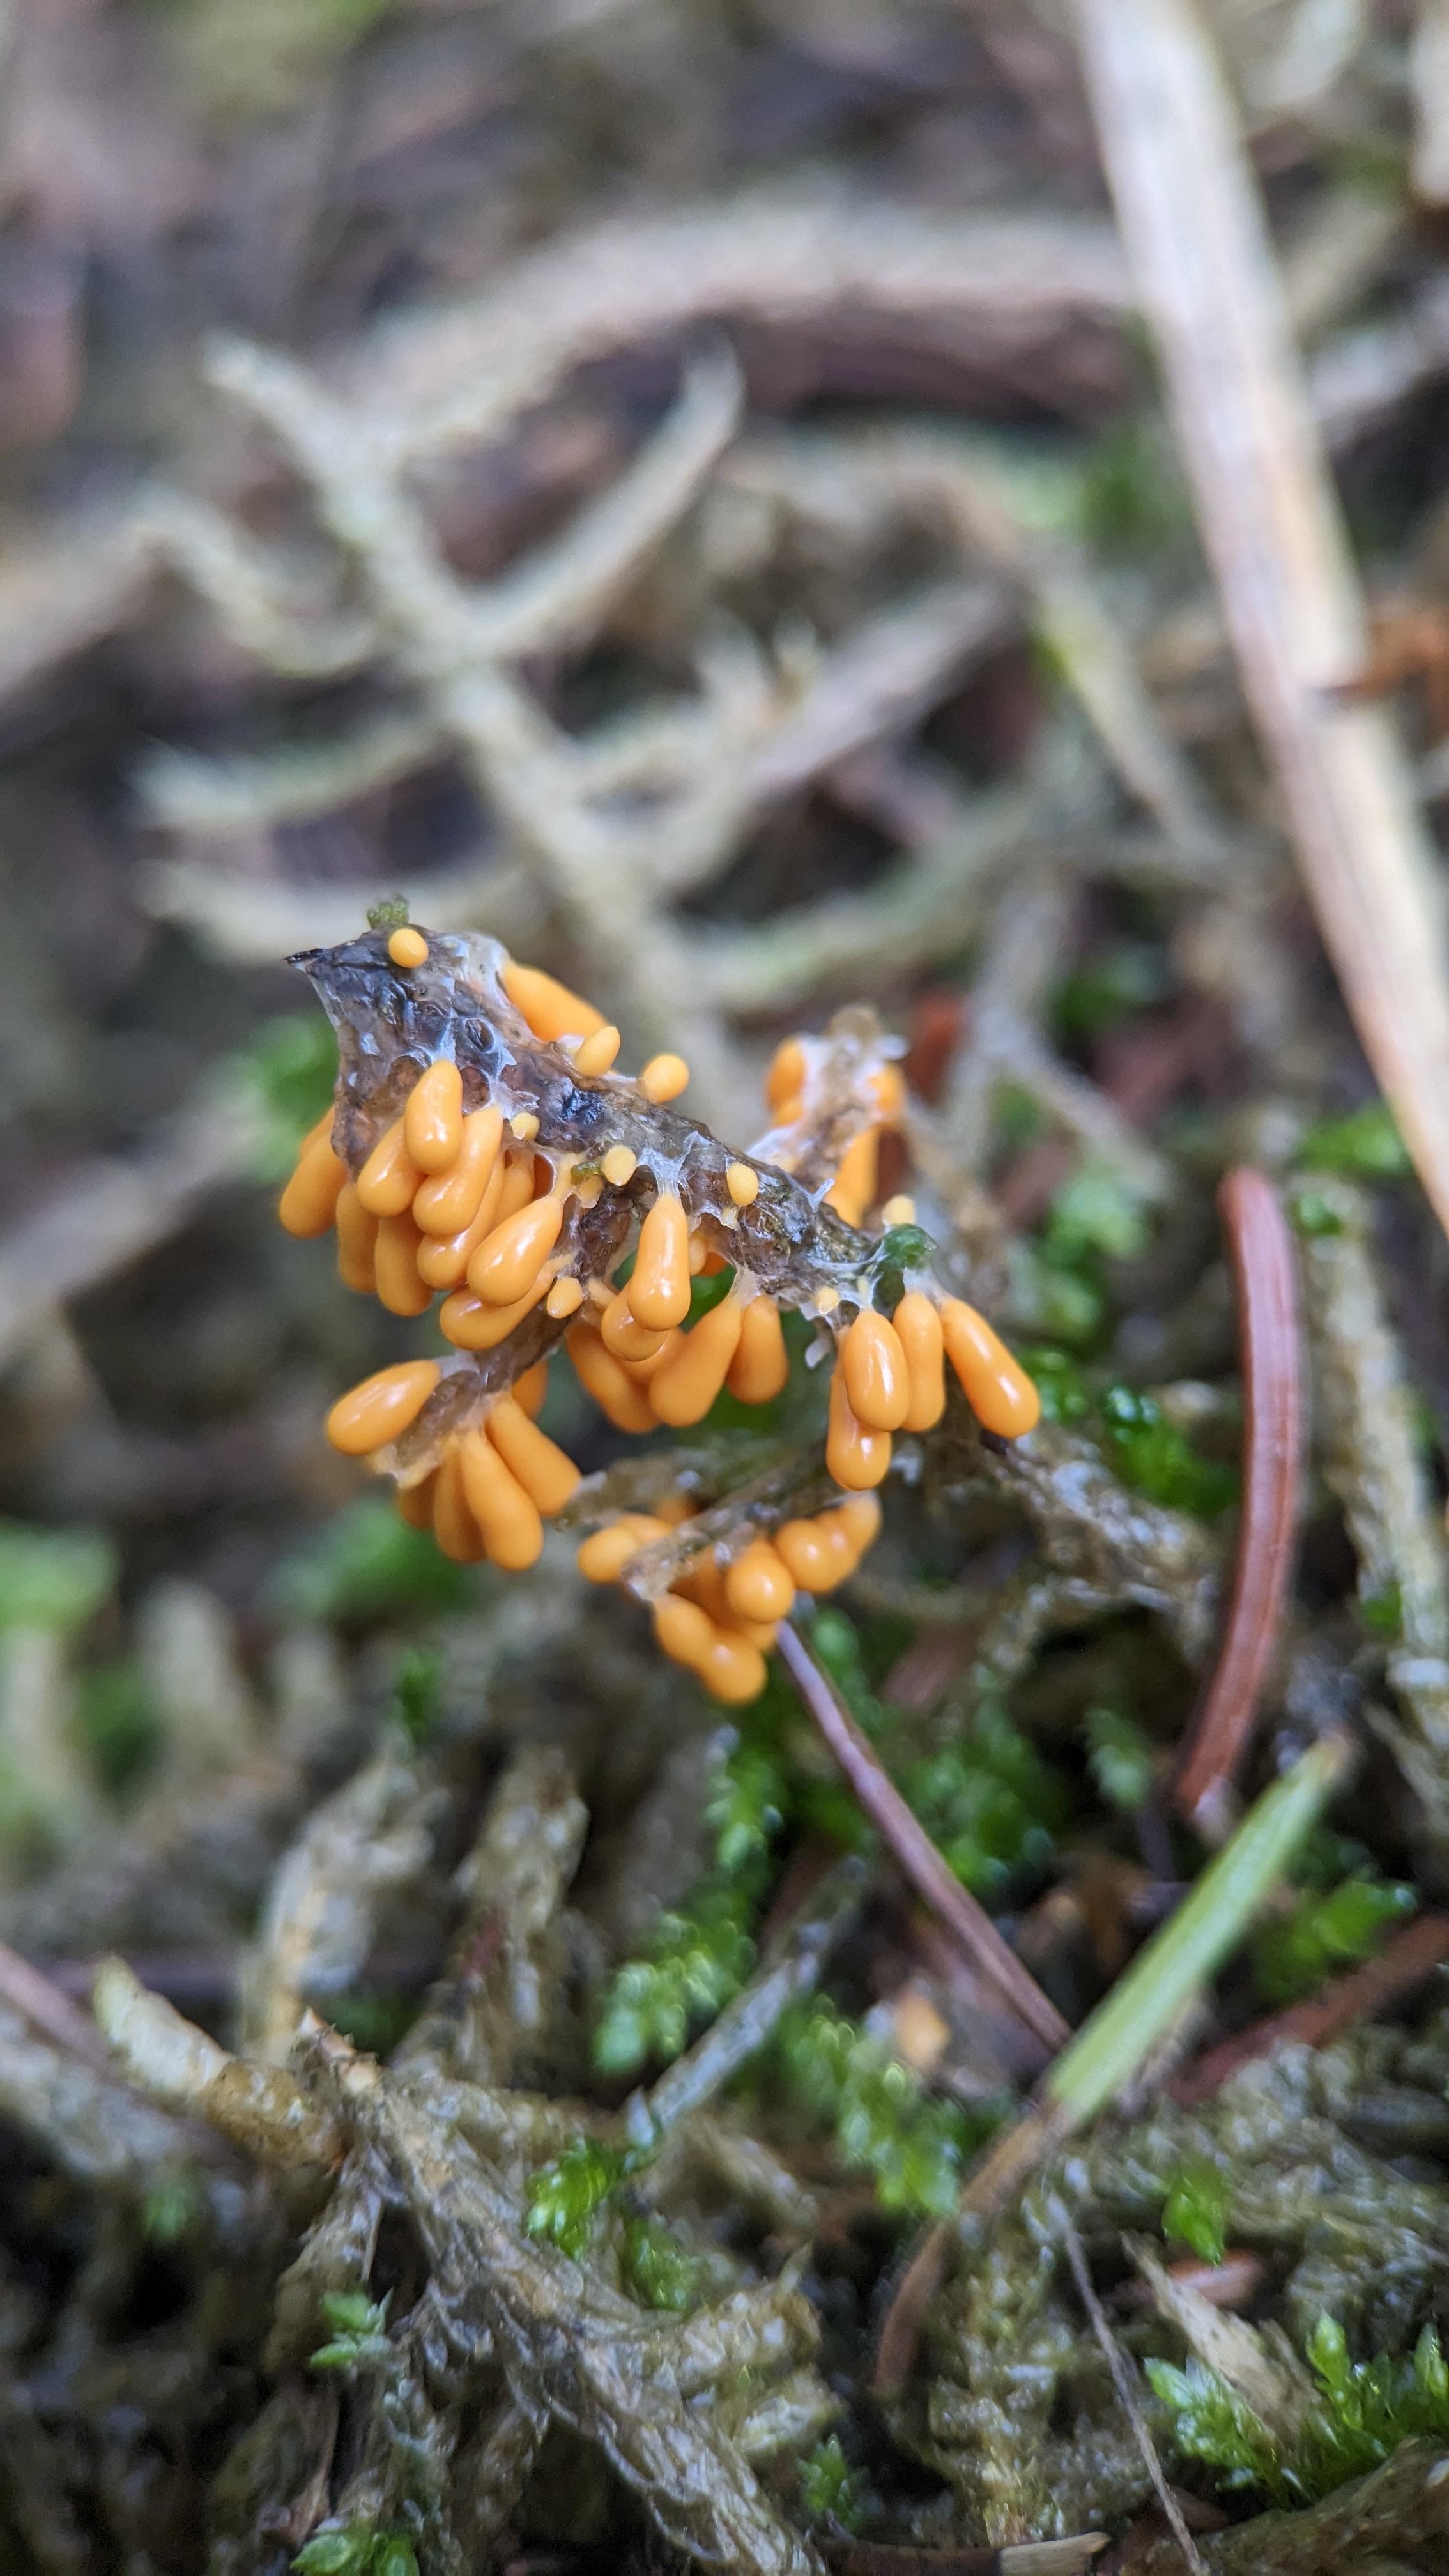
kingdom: Protozoa
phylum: Mycetozoa
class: Myxomycetes
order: Physarales
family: Physaraceae
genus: Leocarpus
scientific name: Leocarpus fragilis
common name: poleret glatfrø
